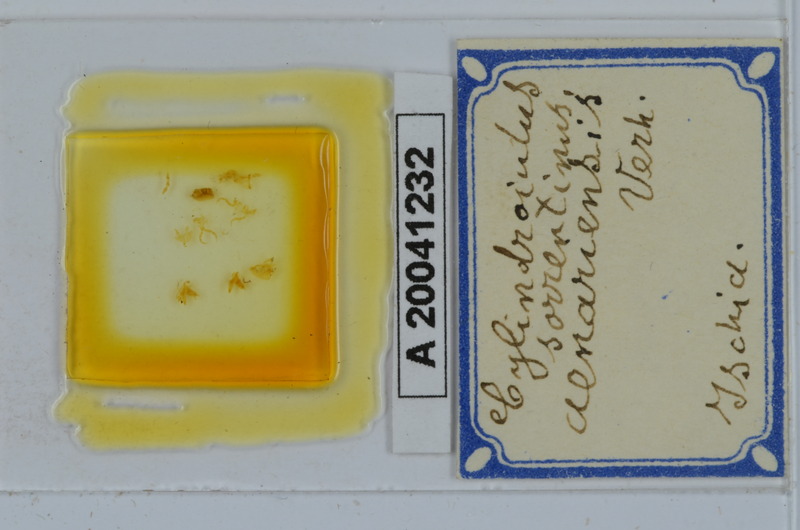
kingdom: Animalia
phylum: Arthropoda
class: Diplopoda
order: Julida
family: Julidae
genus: Cylindroiulus
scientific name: Cylindroiulus sorrentinus
